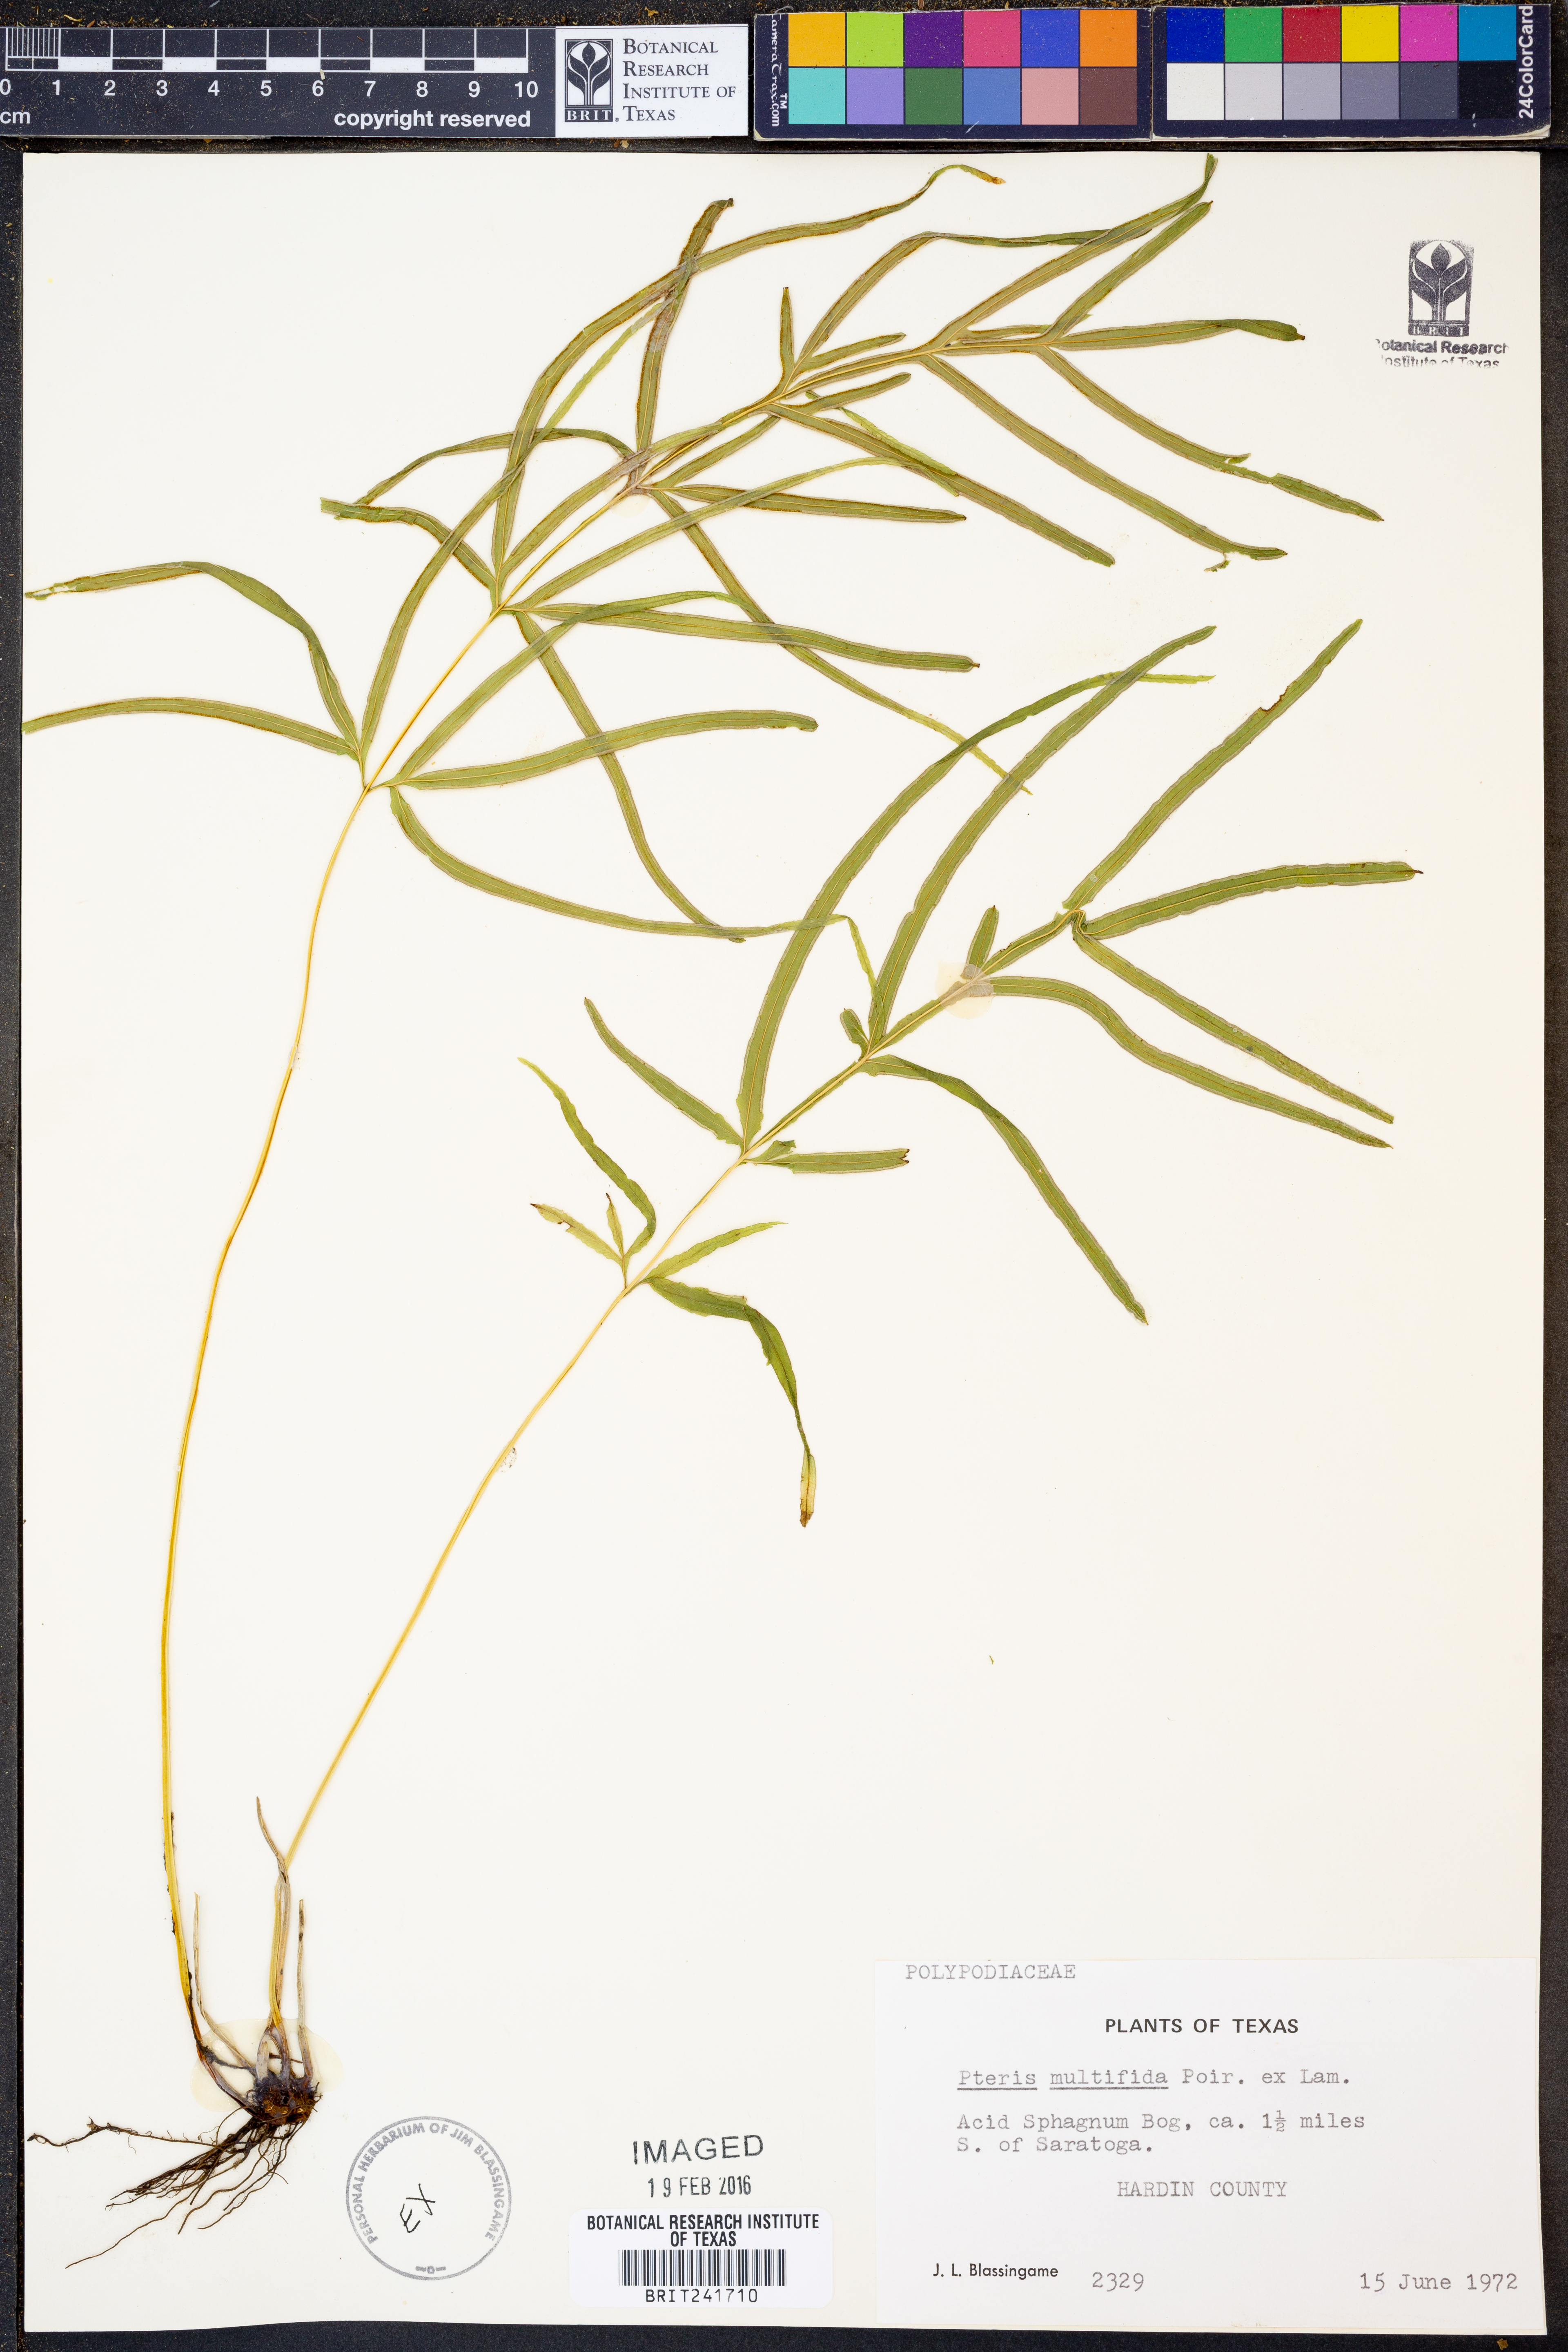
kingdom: Plantae
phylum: Tracheophyta
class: Polypodiopsida
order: Polypodiales
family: Pteridaceae
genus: Pteris
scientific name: Pteris multifida
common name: Spider brake
